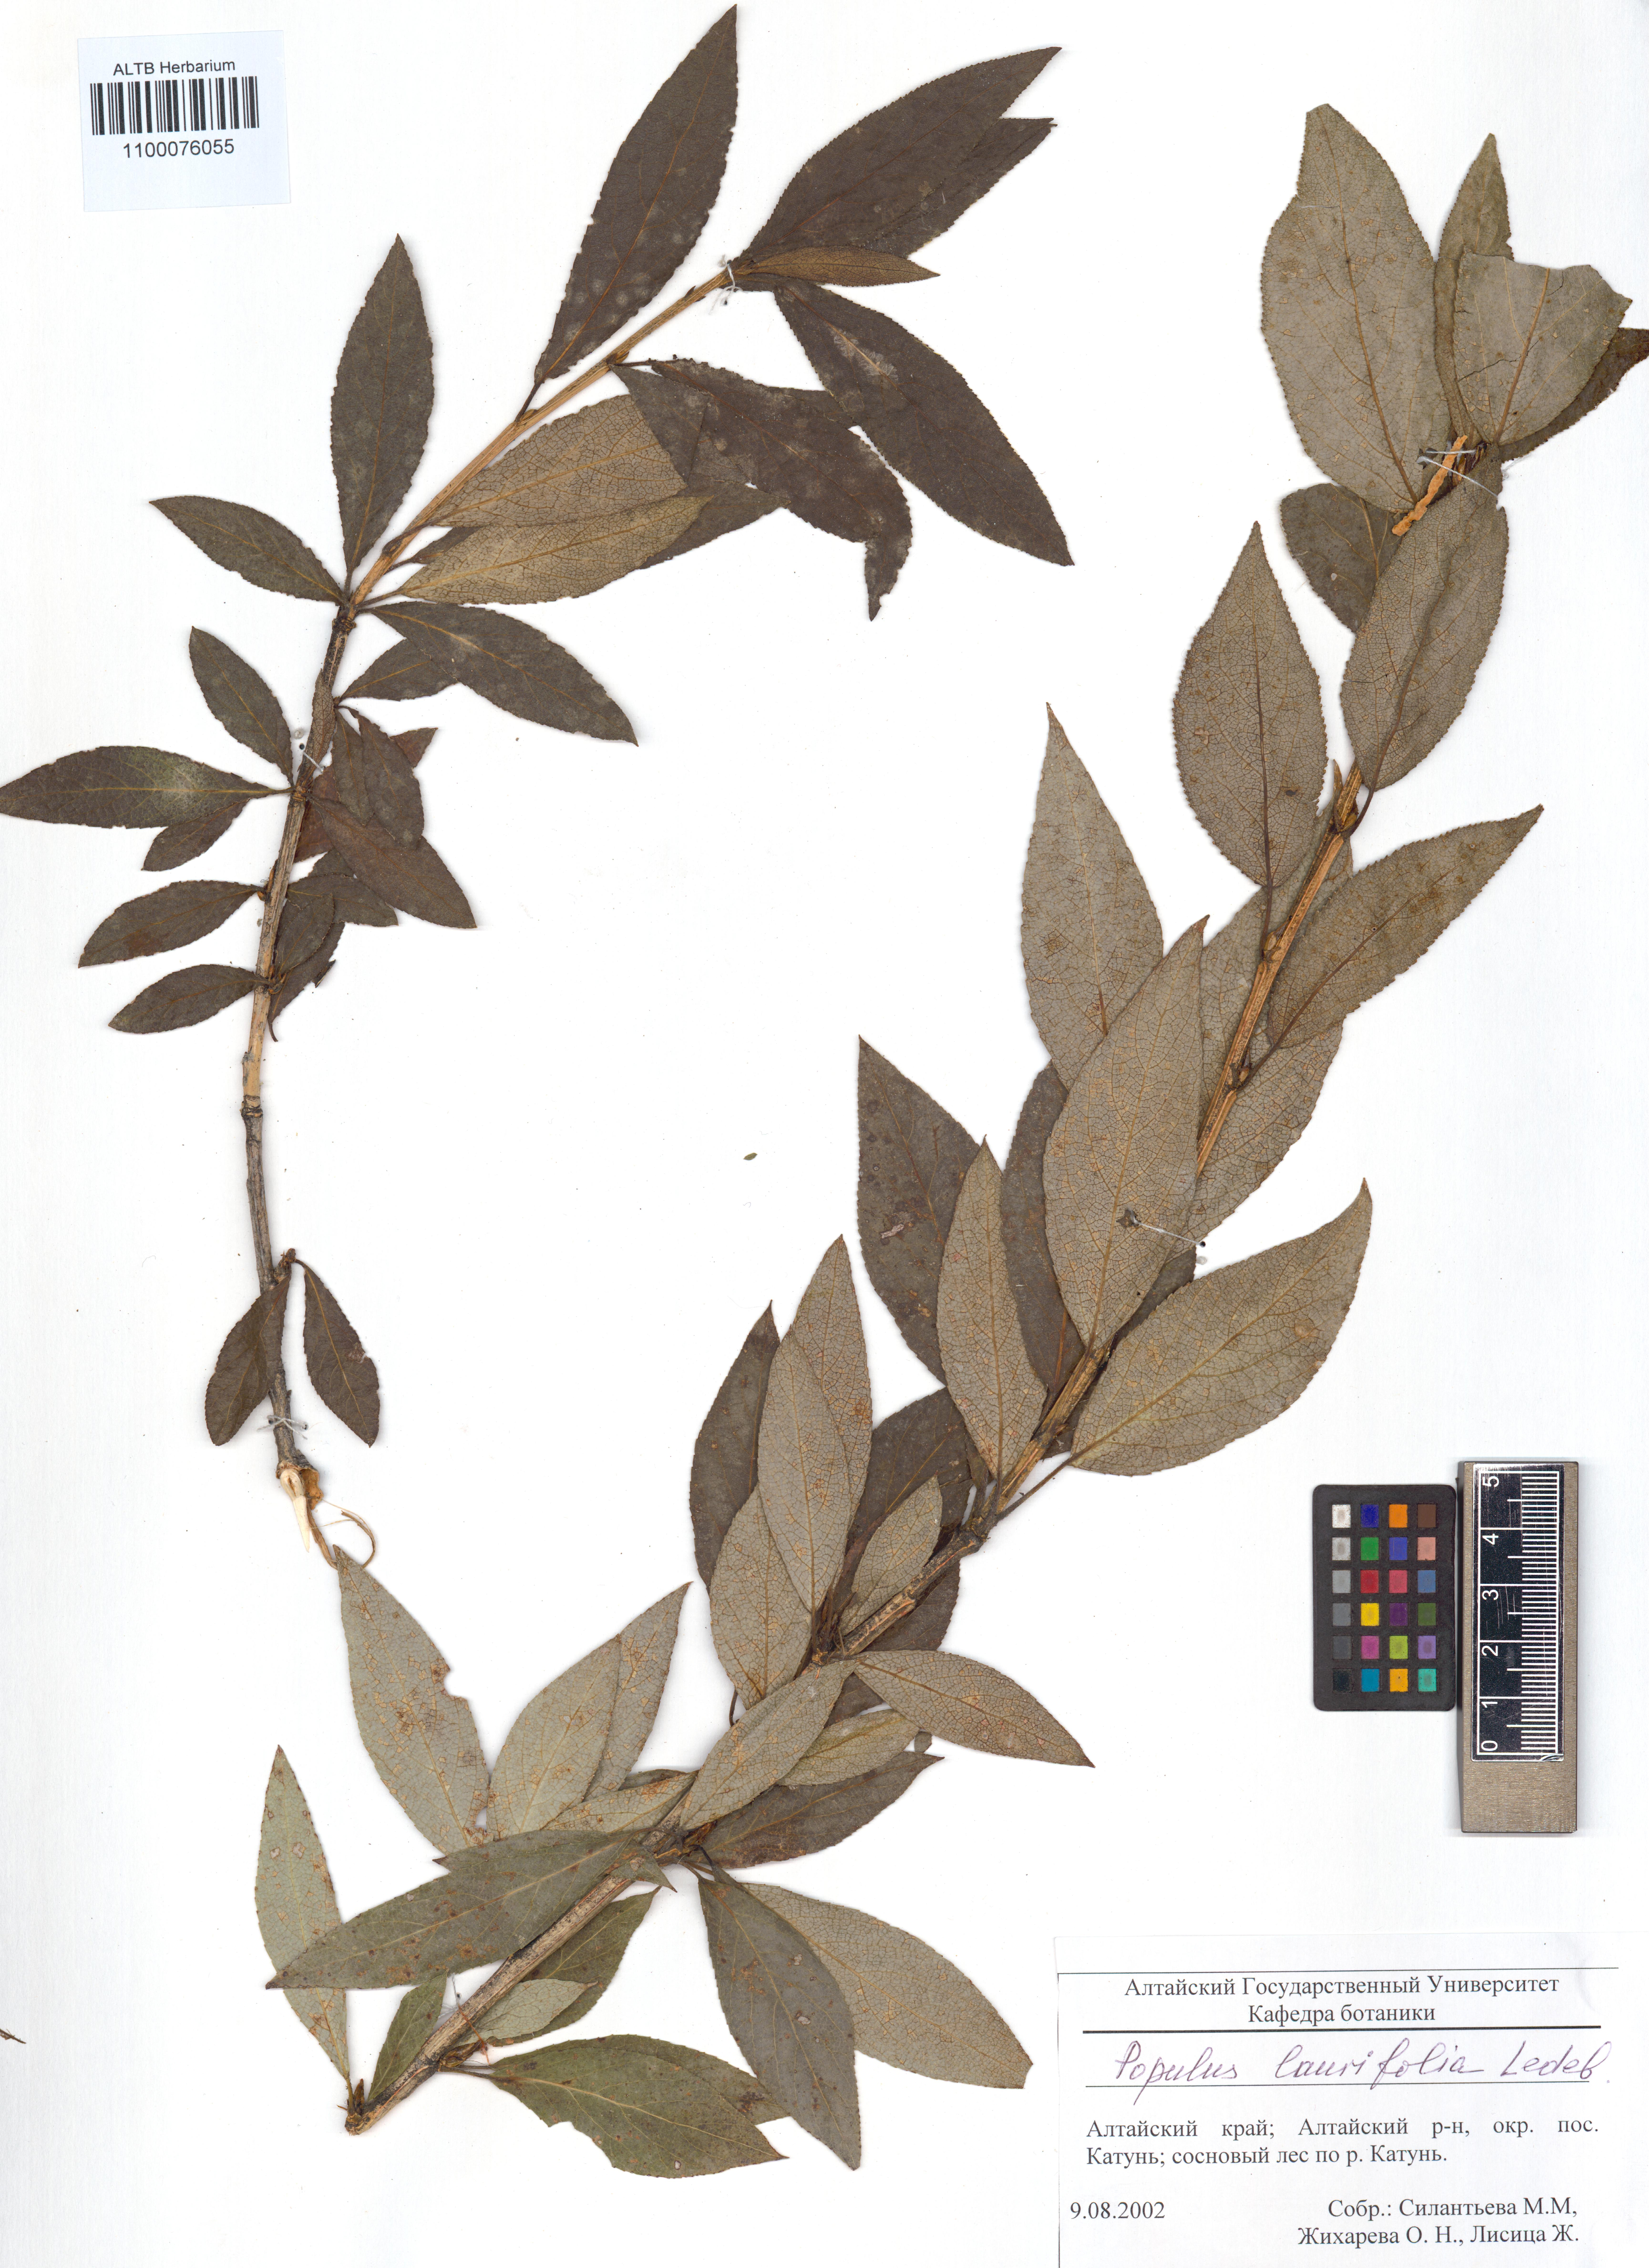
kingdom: Plantae
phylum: Tracheophyta
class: Magnoliopsida
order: Malpighiales
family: Salicaceae
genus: Populus
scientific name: Populus laurifolia
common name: Laurel-leaf poplar
